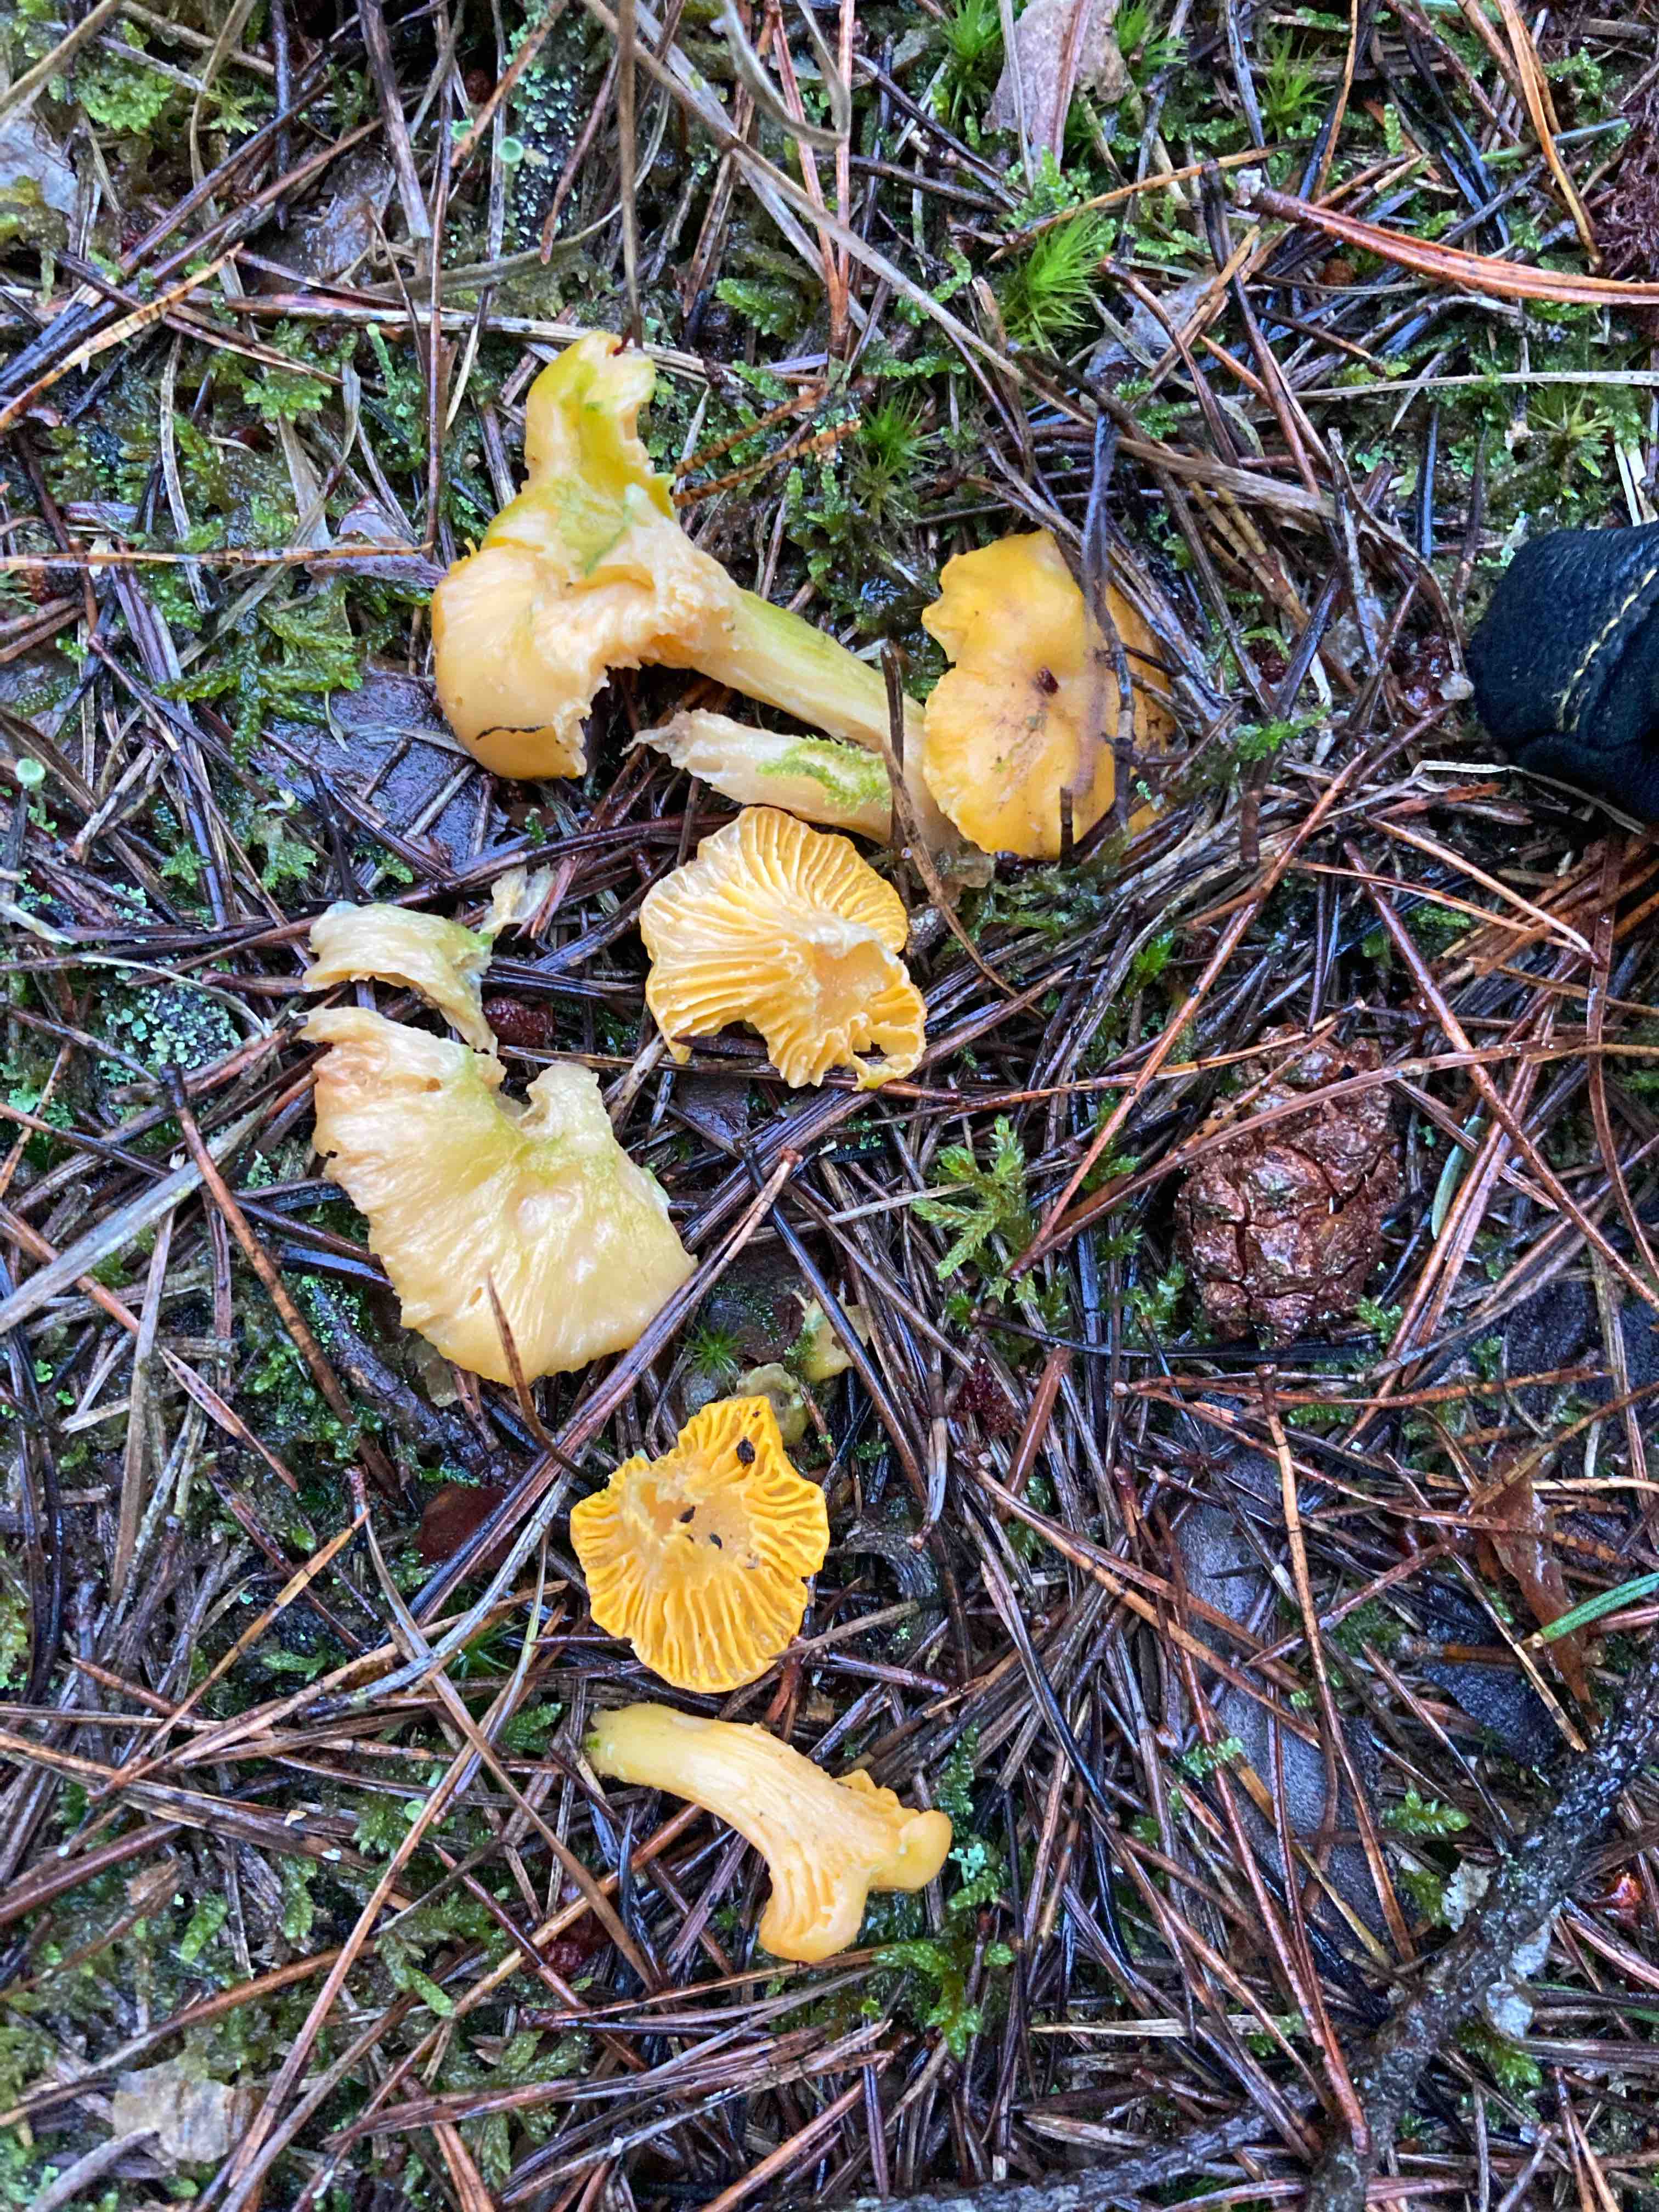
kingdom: Fungi
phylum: Basidiomycota
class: Agaricomycetes
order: Cantharellales
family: Hydnaceae
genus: Cantharellus
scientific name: Cantharellus cibarius
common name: almindelig kantarel
